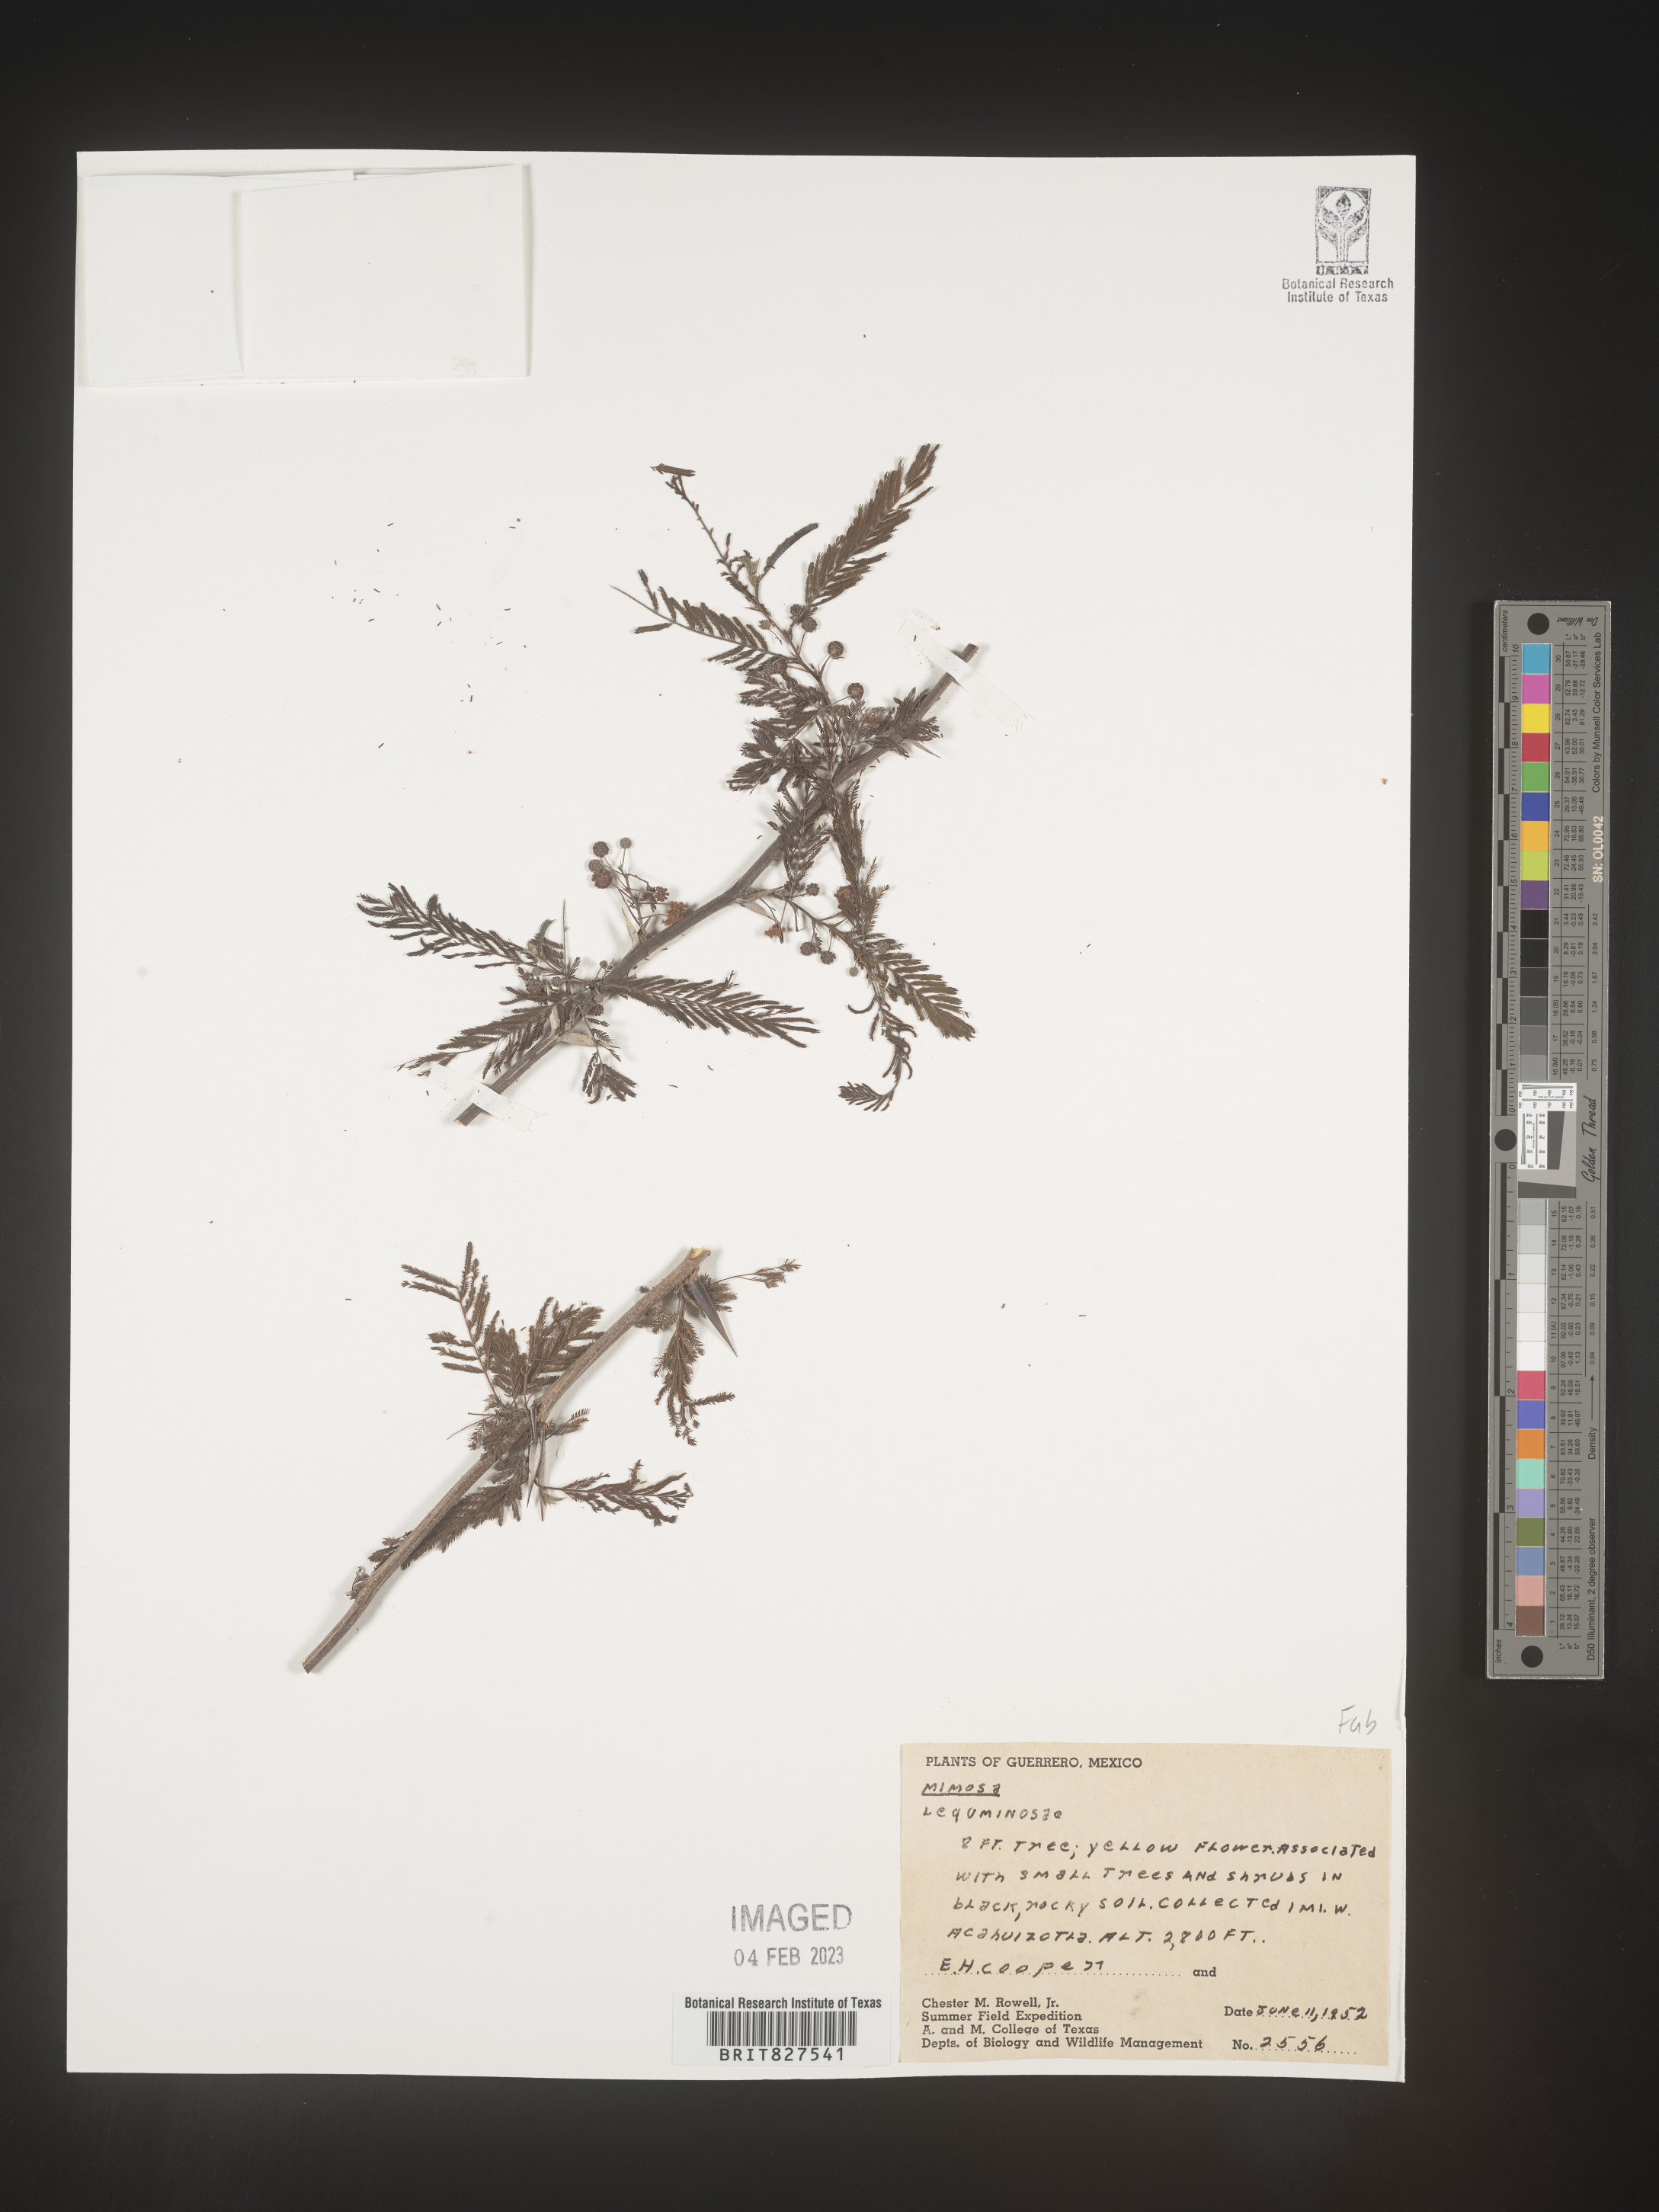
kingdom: Plantae
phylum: Tracheophyta
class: Magnoliopsida
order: Fabales
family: Fabaceae
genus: Mimosa
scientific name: Mimosa
